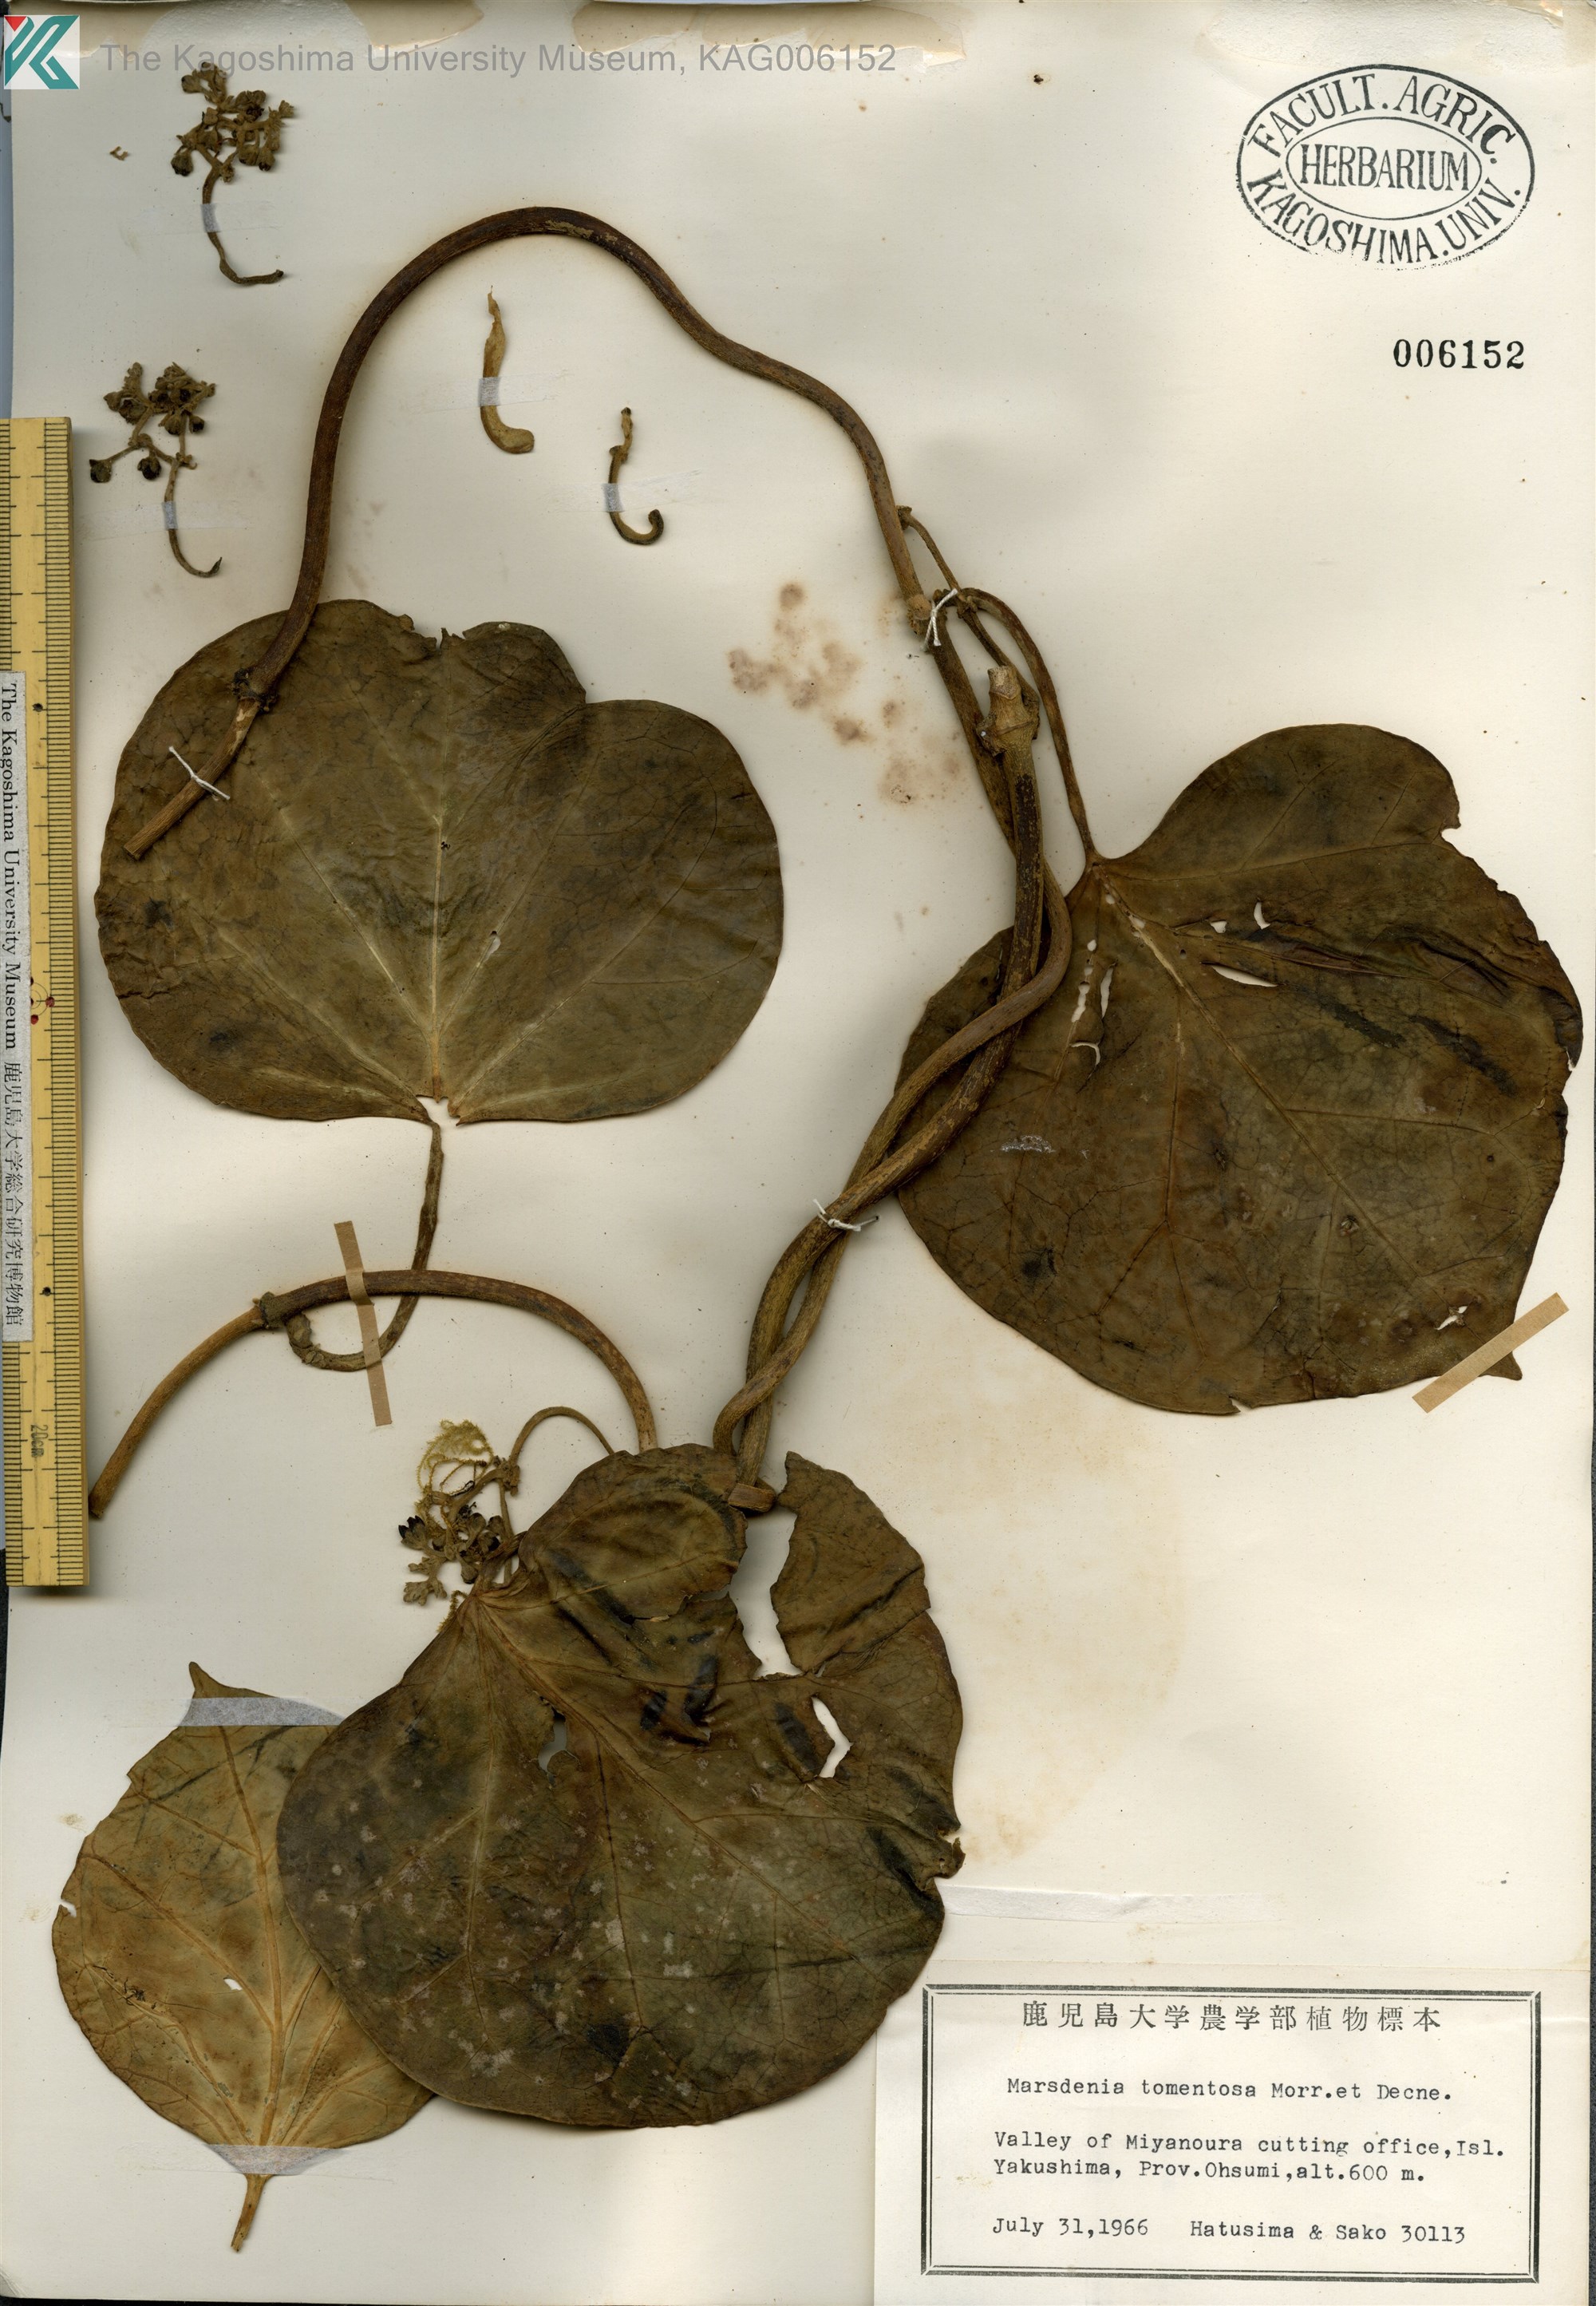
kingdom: Plantae
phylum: Tracheophyta
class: Magnoliopsida
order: Gentianales
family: Apocynaceae
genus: Sinomarsdenia
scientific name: Sinomarsdenia tomentosa
